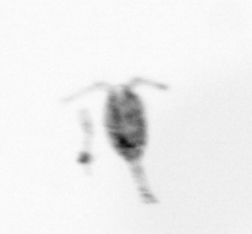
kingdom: Animalia
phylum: Arthropoda
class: Copepoda
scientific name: Copepoda
